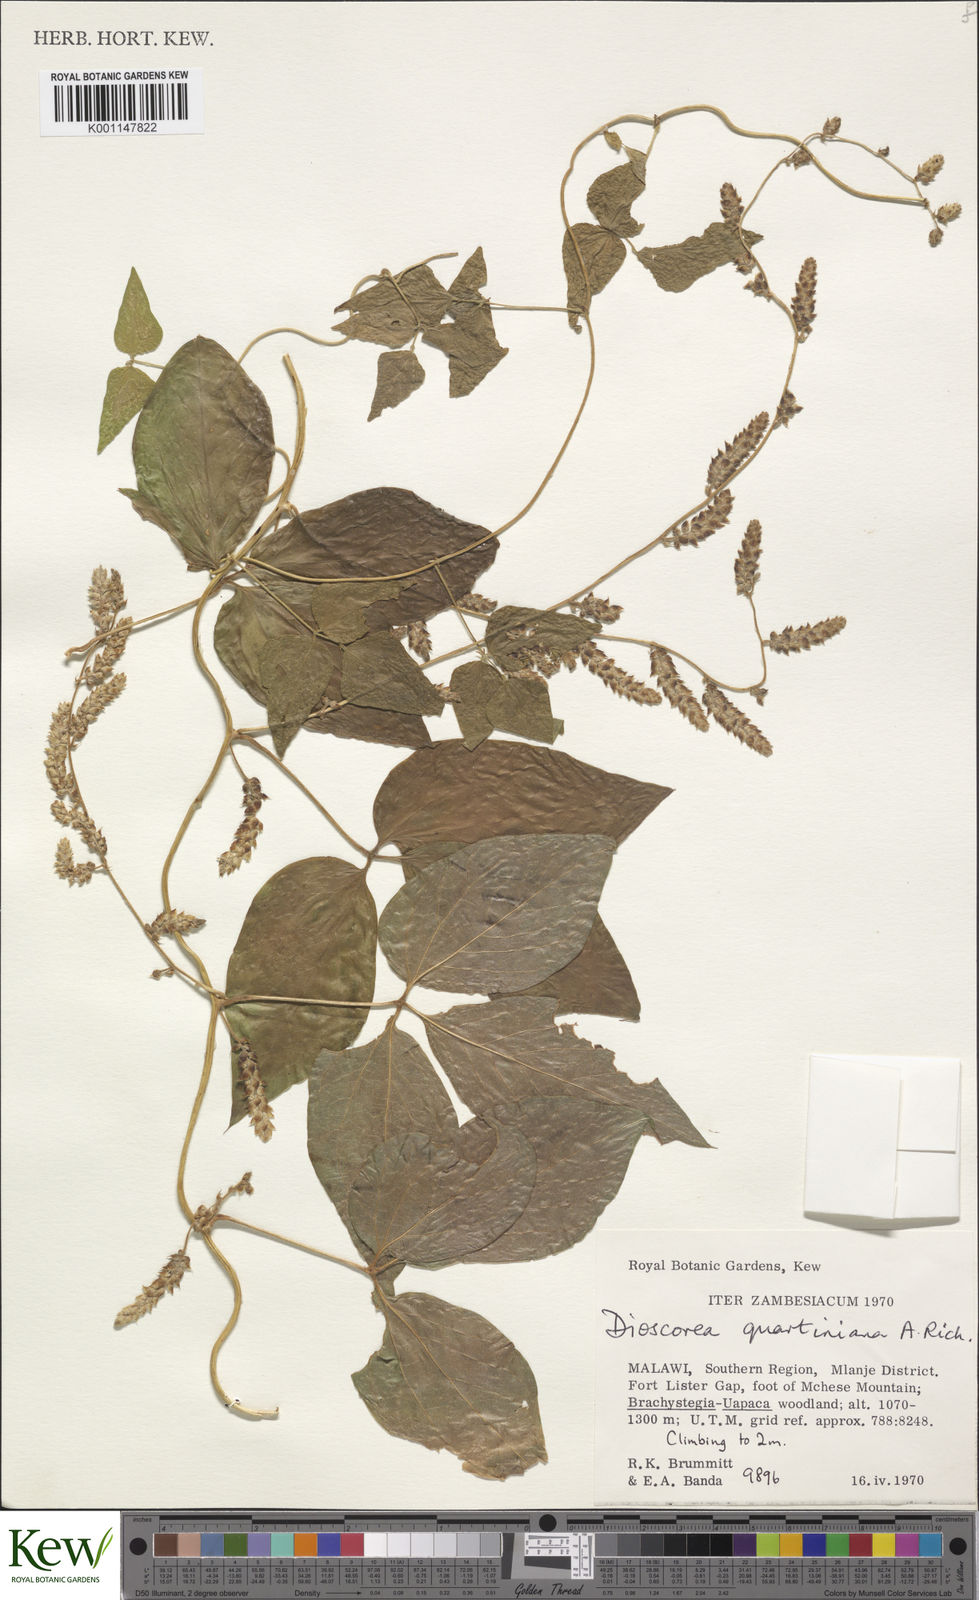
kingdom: Plantae
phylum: Tracheophyta
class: Liliopsida
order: Dioscoreales
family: Dioscoreaceae
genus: Dioscorea
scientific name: Dioscorea quartiniana
